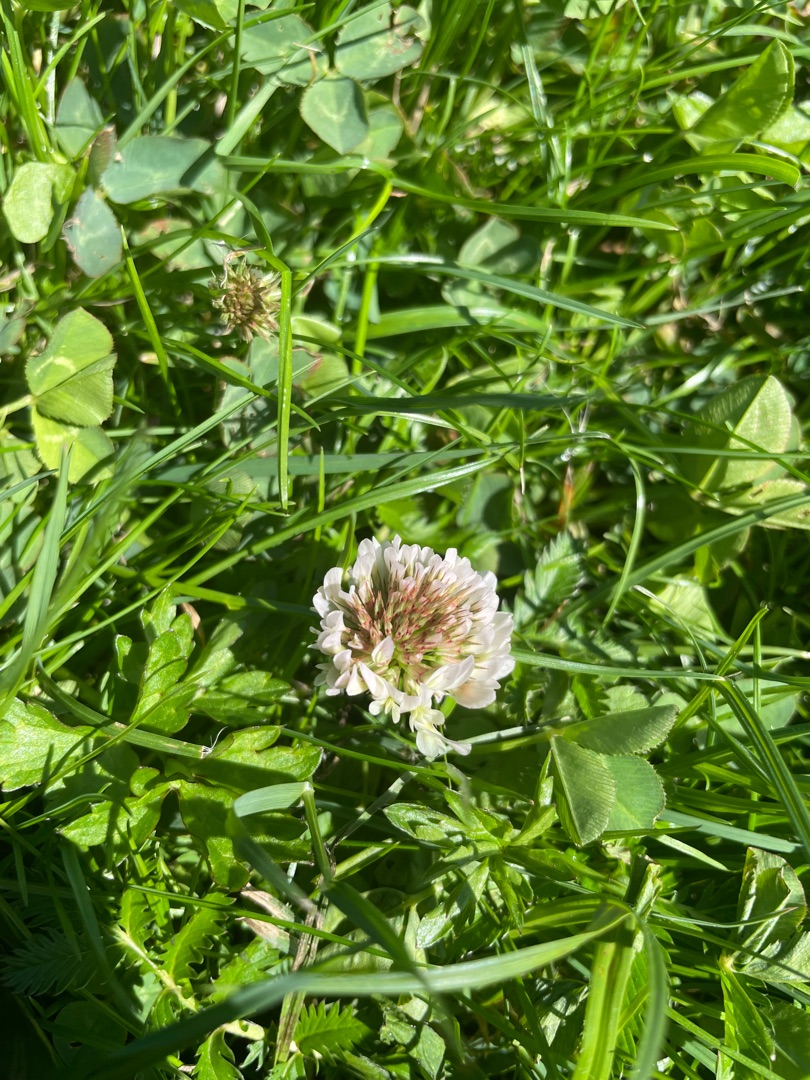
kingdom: Plantae
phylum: Tracheophyta
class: Magnoliopsida
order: Fabales
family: Fabaceae
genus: Trifolium
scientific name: Trifolium repens
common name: Hvid-kløver
